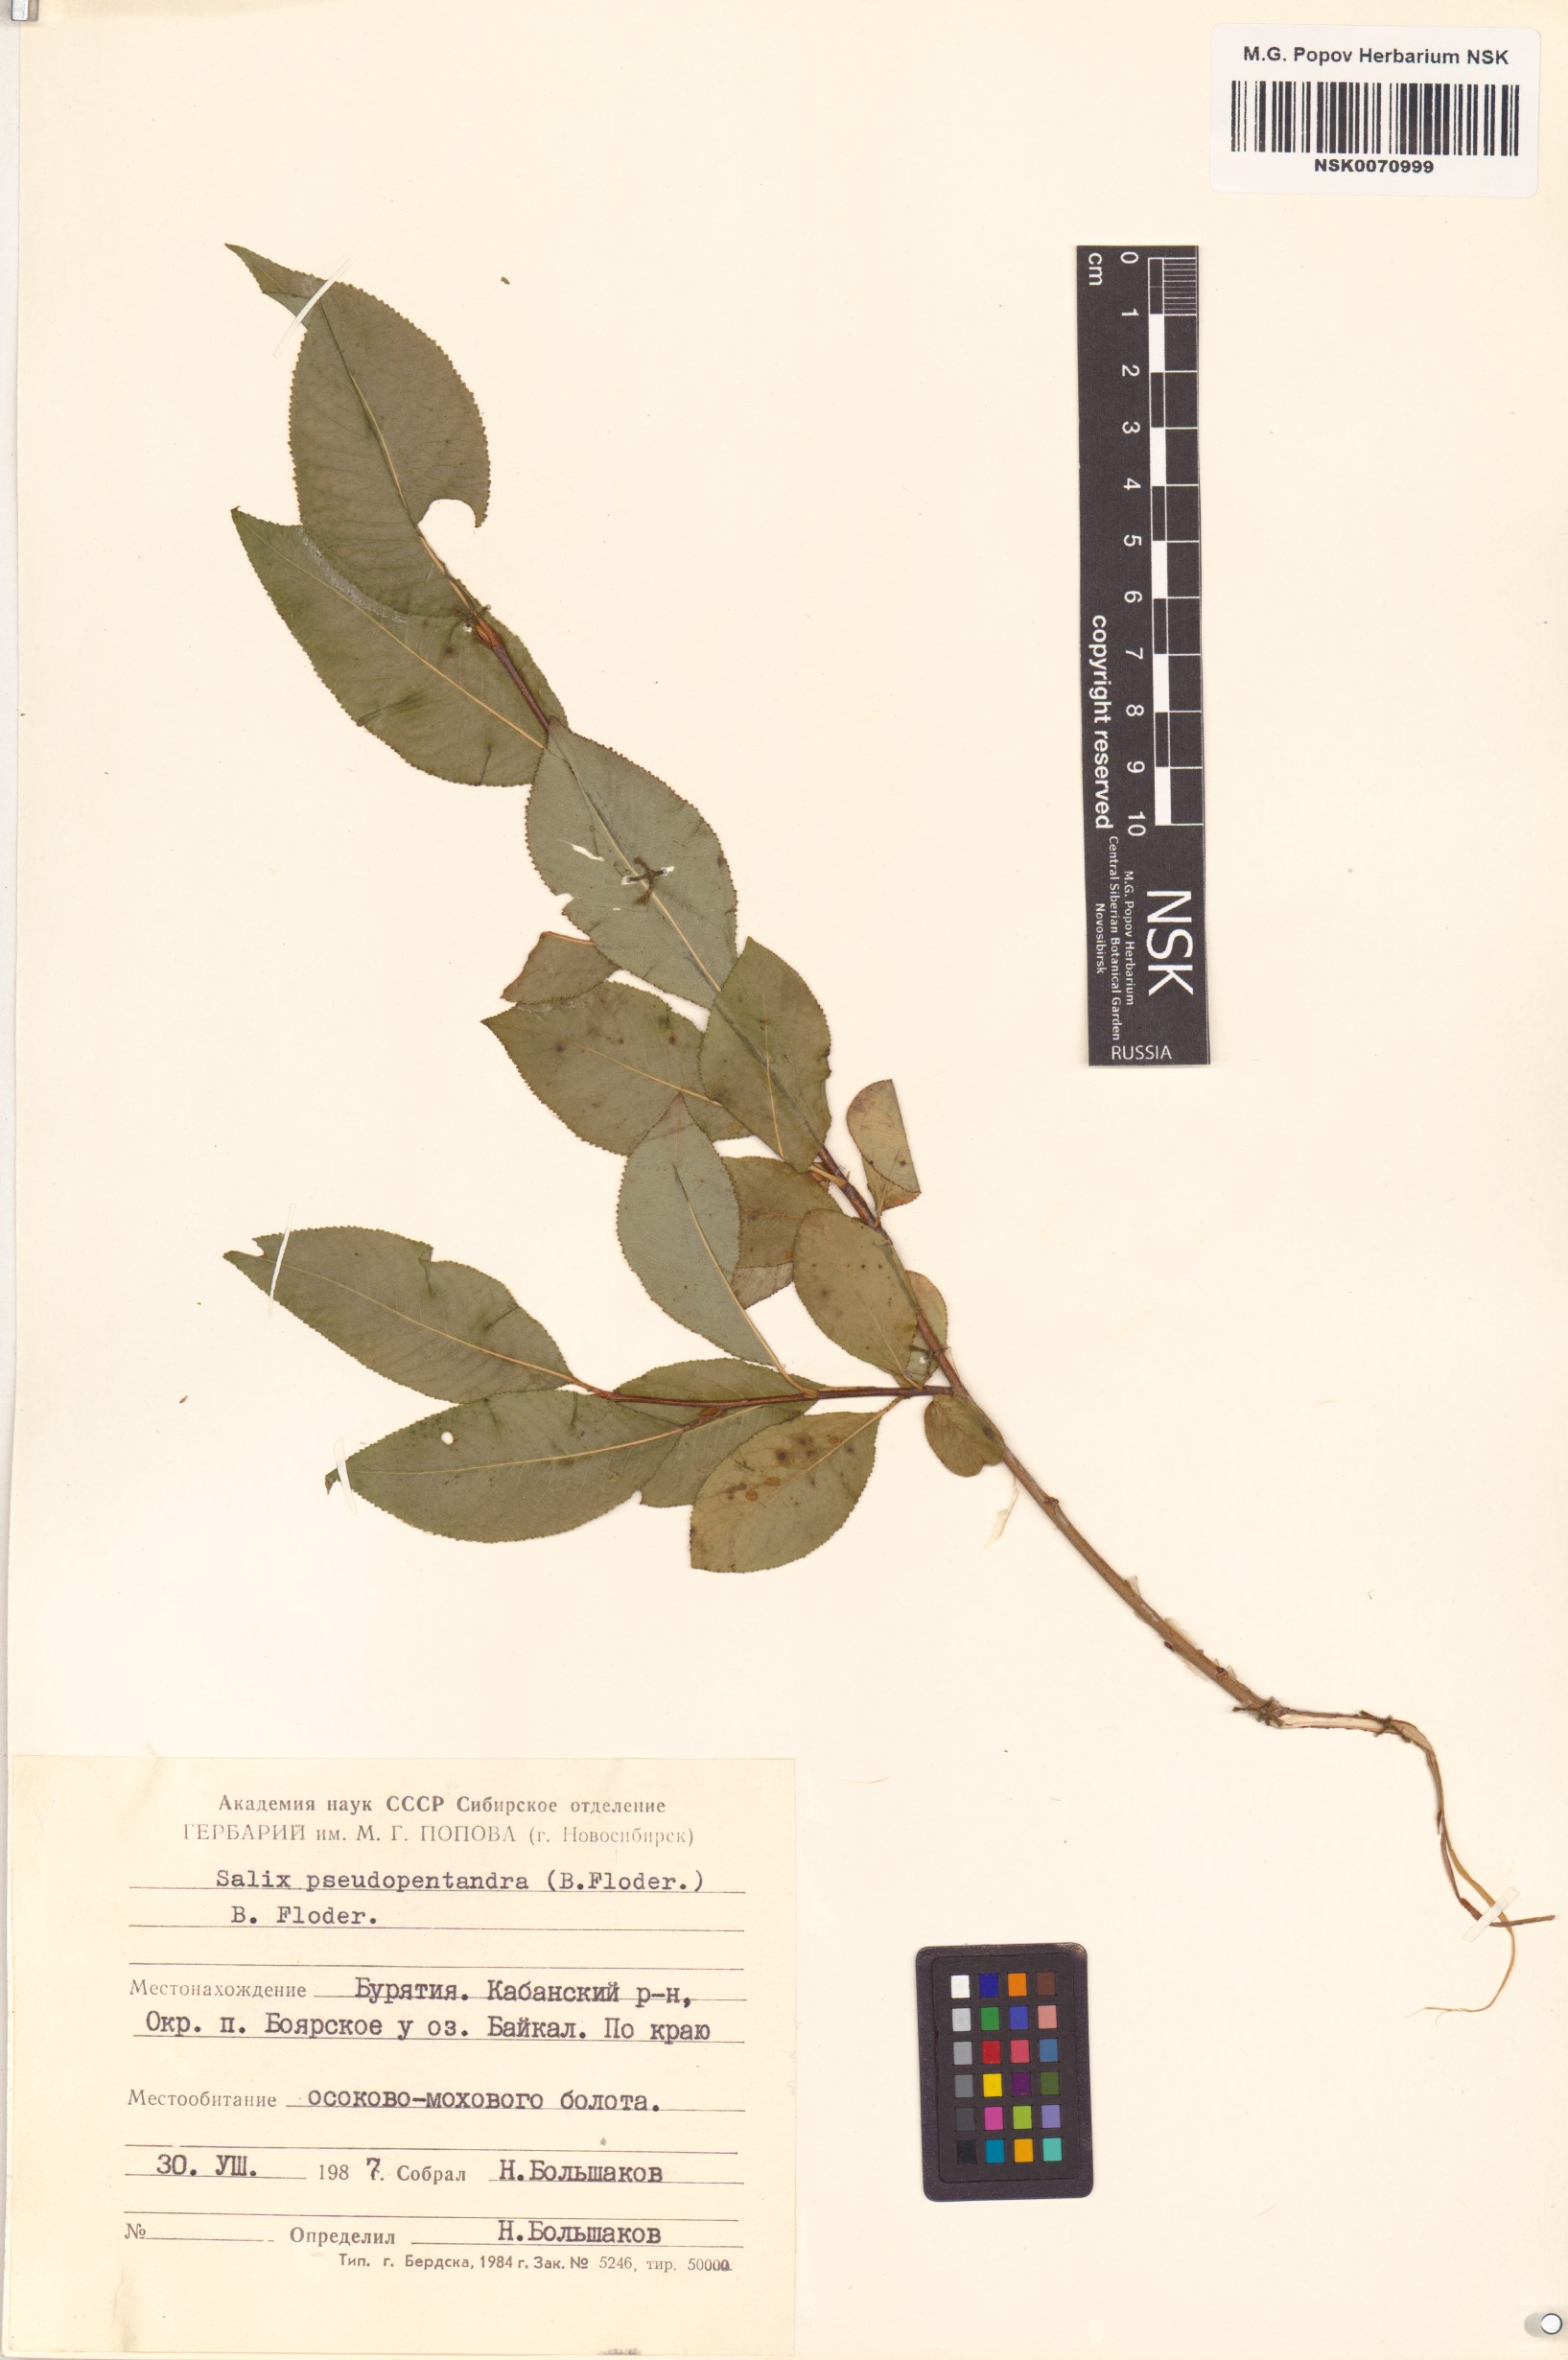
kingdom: Plantae
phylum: Tracheophyta
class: Magnoliopsida
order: Malpighiales
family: Salicaceae
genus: Salix
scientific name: Salix pseudopentandra
